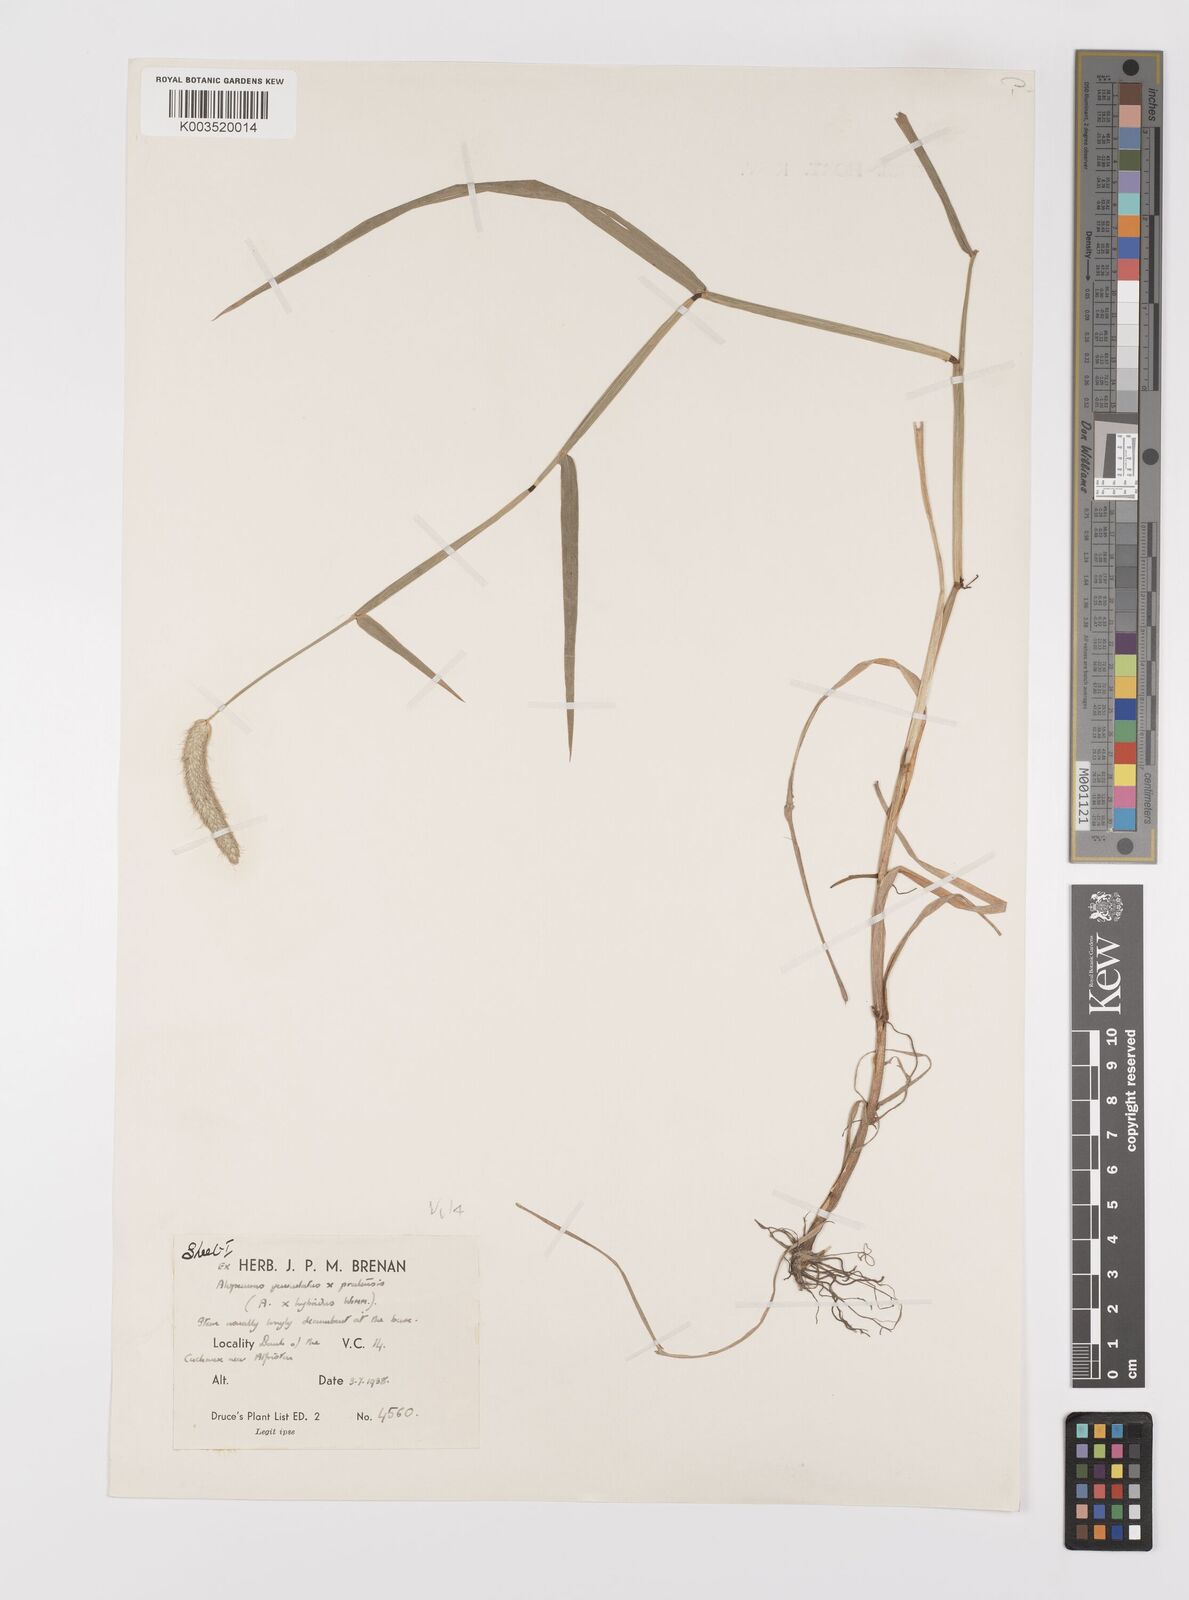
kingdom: Plantae
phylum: Tracheophyta
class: Liliopsida
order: Poales
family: Poaceae
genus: Alopecurus
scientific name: Alopecurus brachystylus
